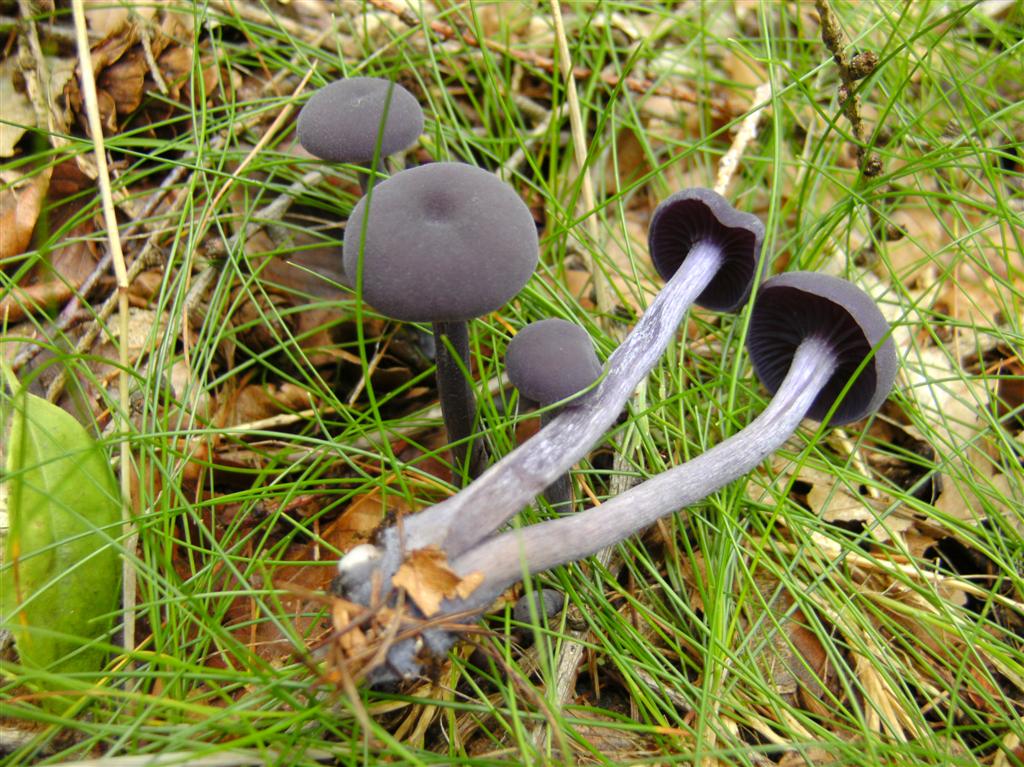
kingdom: Fungi
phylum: Basidiomycota
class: Agaricomycetes
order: Agaricales
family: Hydnangiaceae
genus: Laccaria
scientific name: Laccaria amethystina
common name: violet ametysthat
